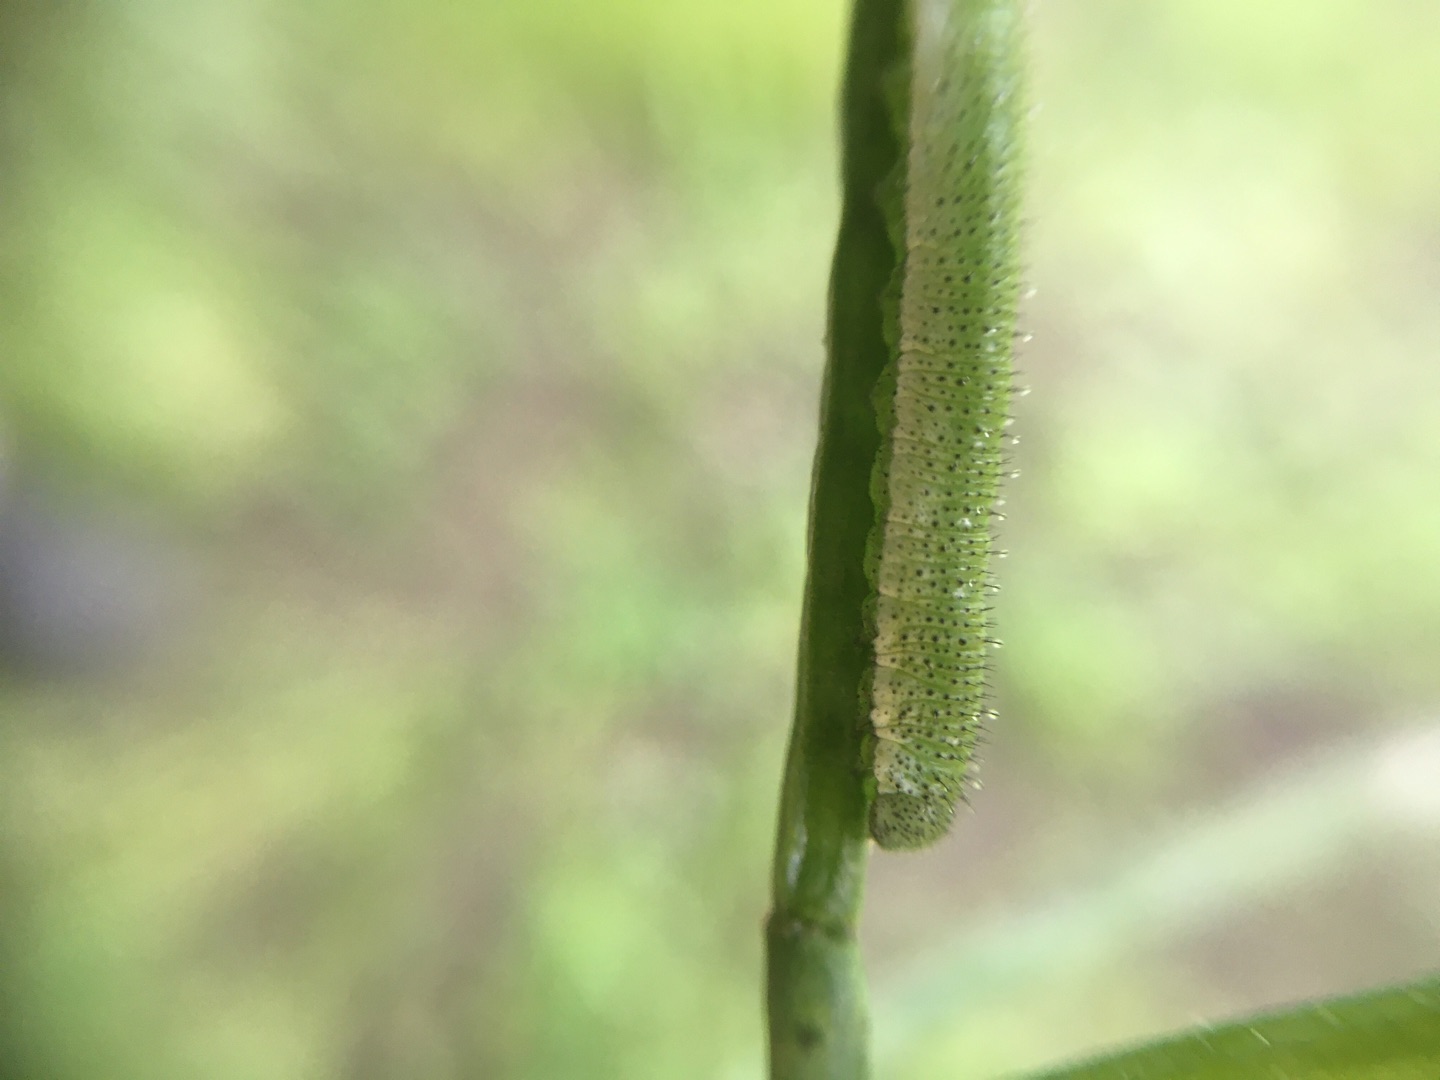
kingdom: Animalia
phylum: Arthropoda
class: Insecta
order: Lepidoptera
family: Pieridae
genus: Anthocharis
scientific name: Anthocharis cardamines
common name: Aurora
